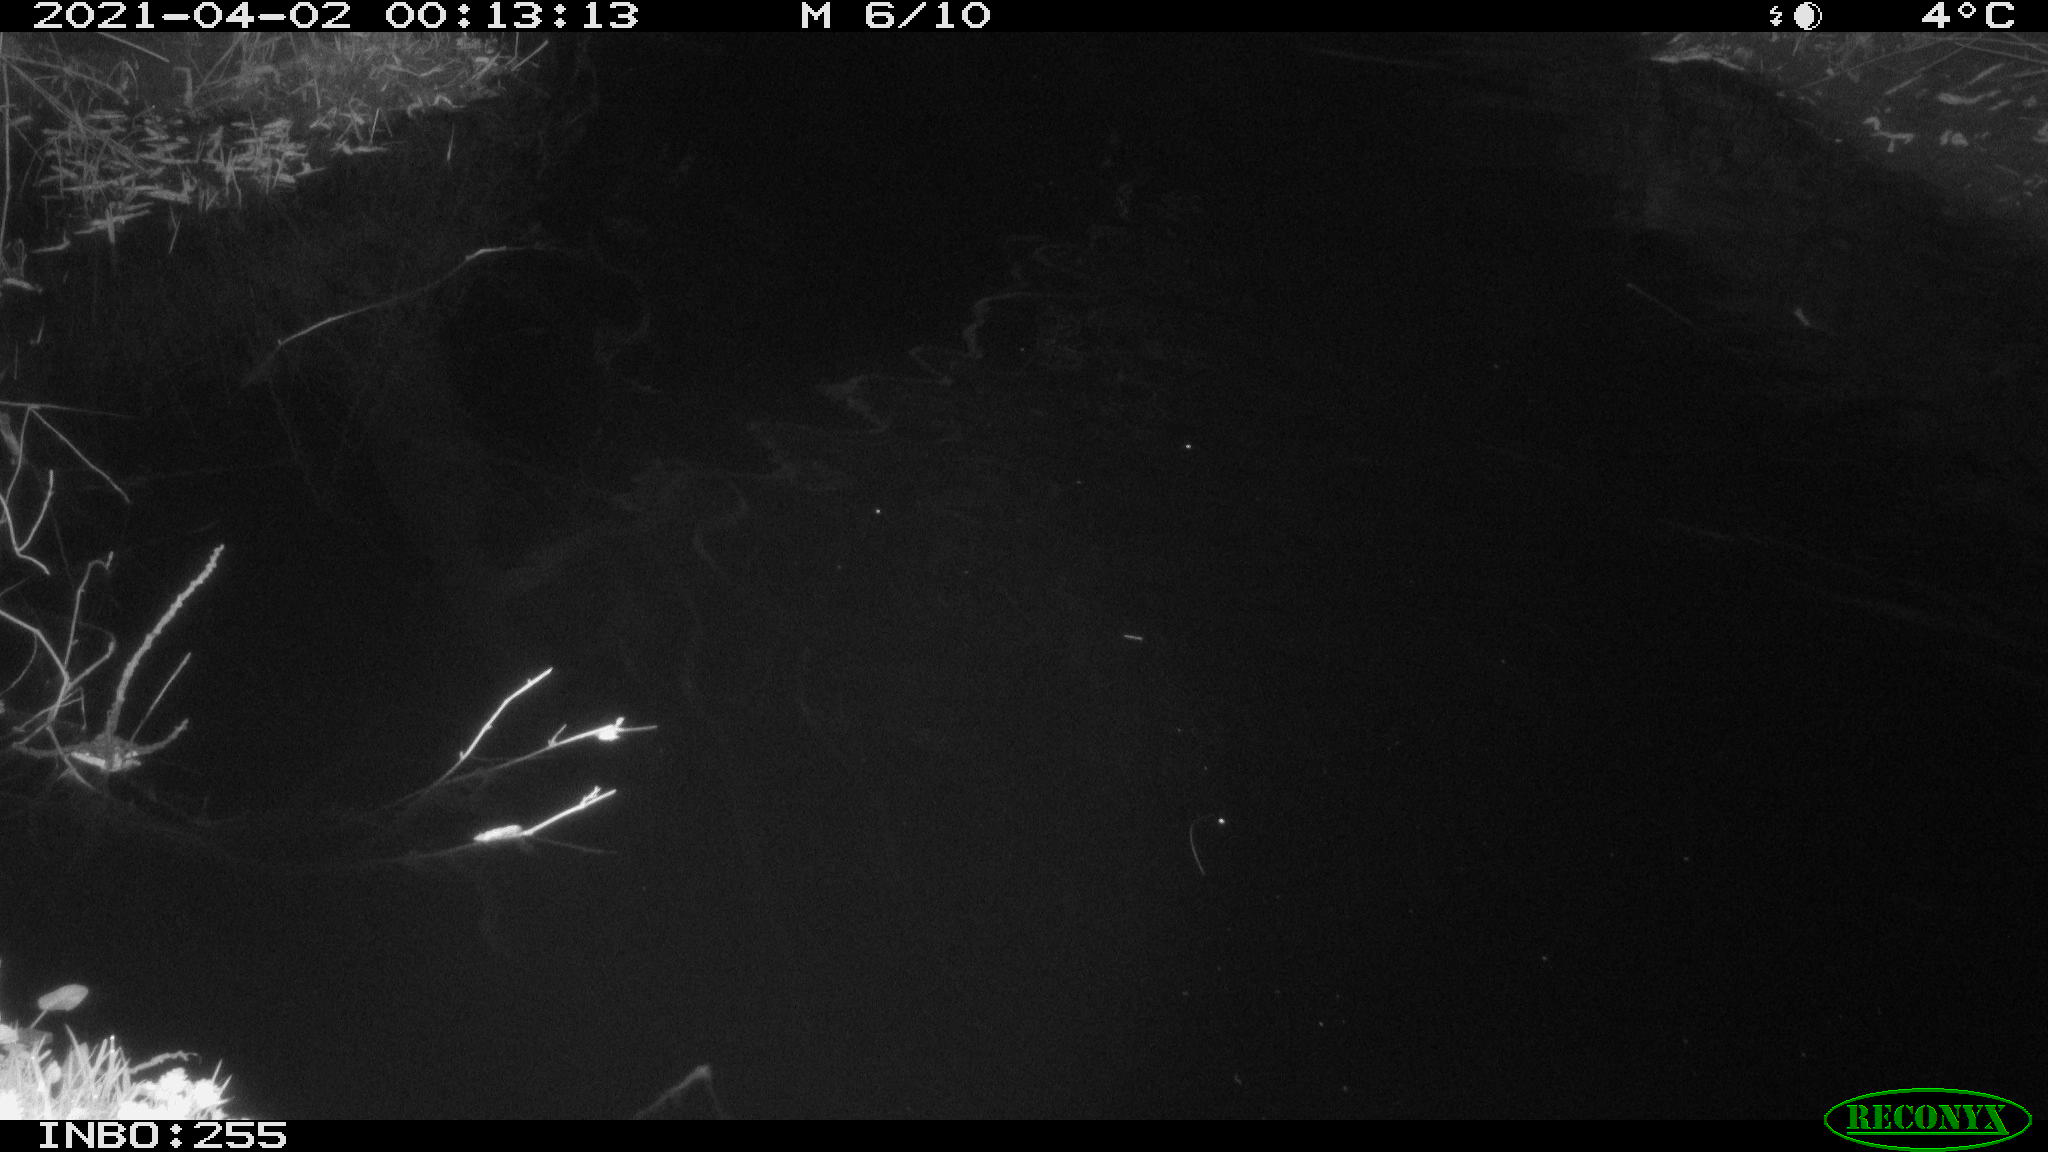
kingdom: Animalia
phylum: Chordata
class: Aves
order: Gruiformes
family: Rallidae
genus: Gallinula
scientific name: Gallinula chloropus
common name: Common moorhen
